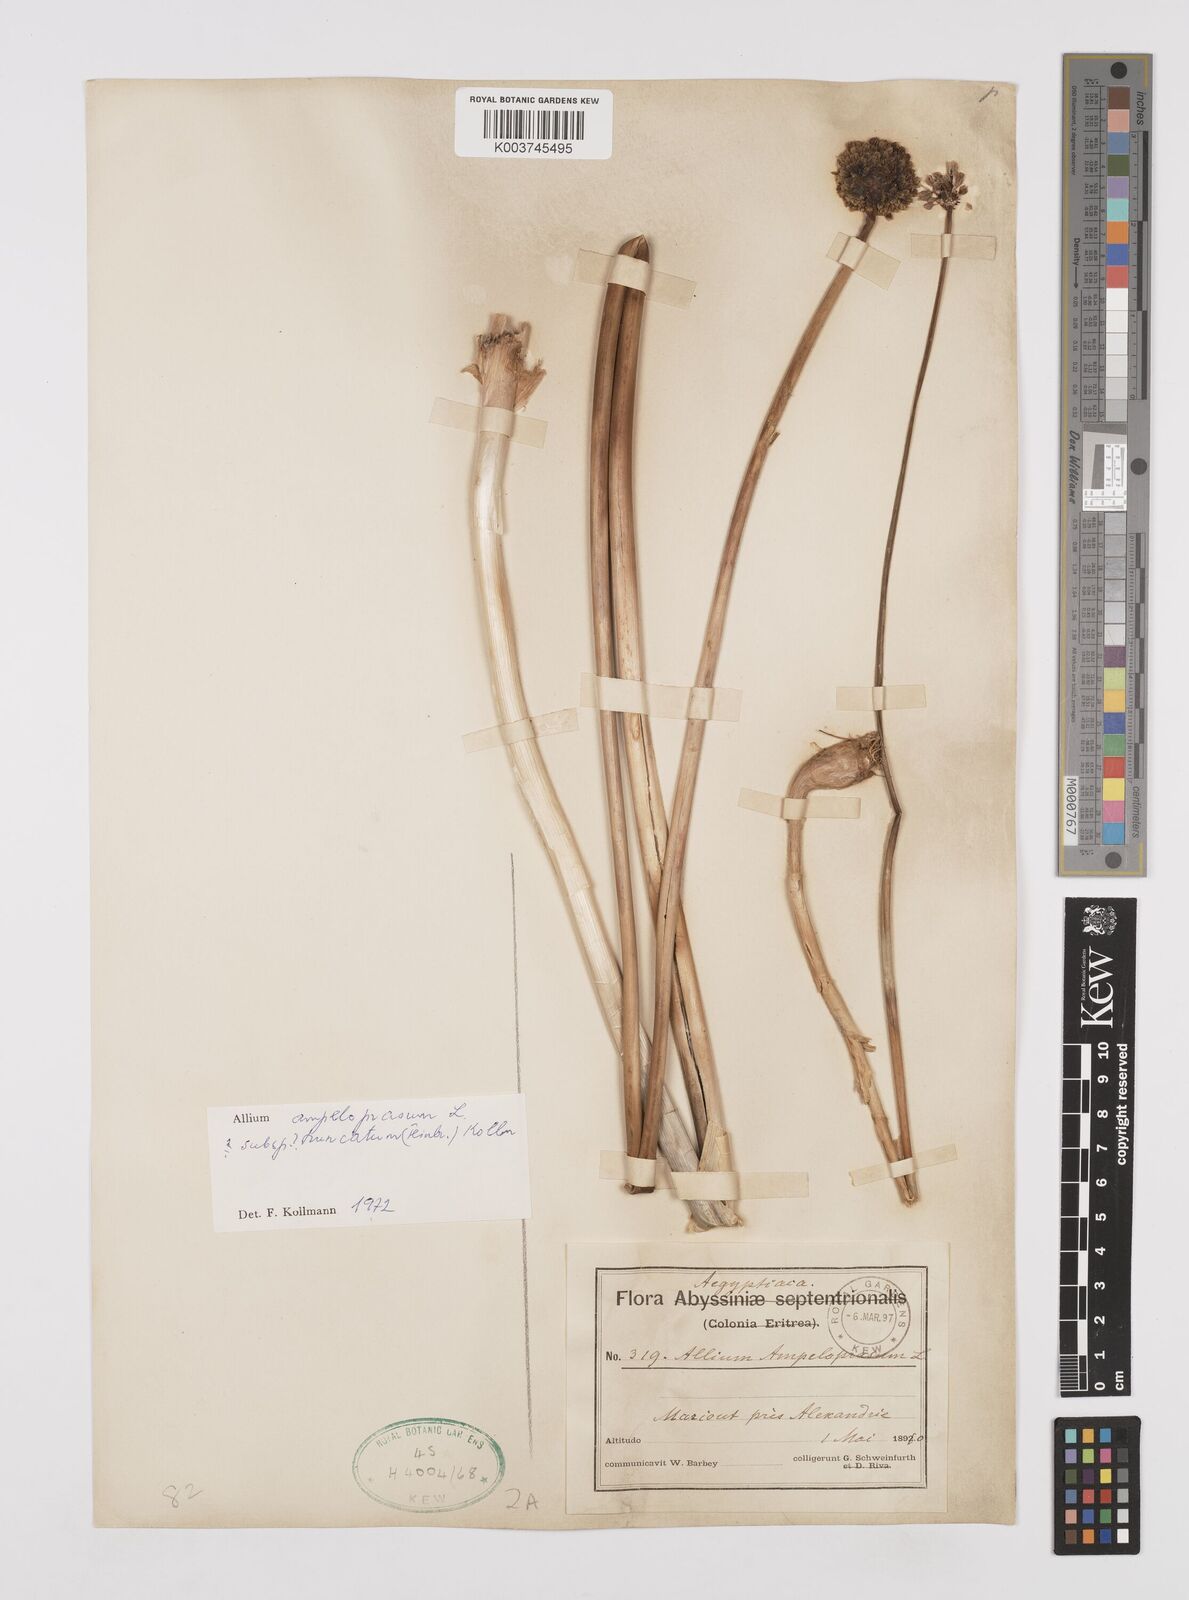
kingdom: Plantae
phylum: Tracheophyta
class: Liliopsida
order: Asparagales
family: Amaryllidaceae
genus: Allium
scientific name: Allium
